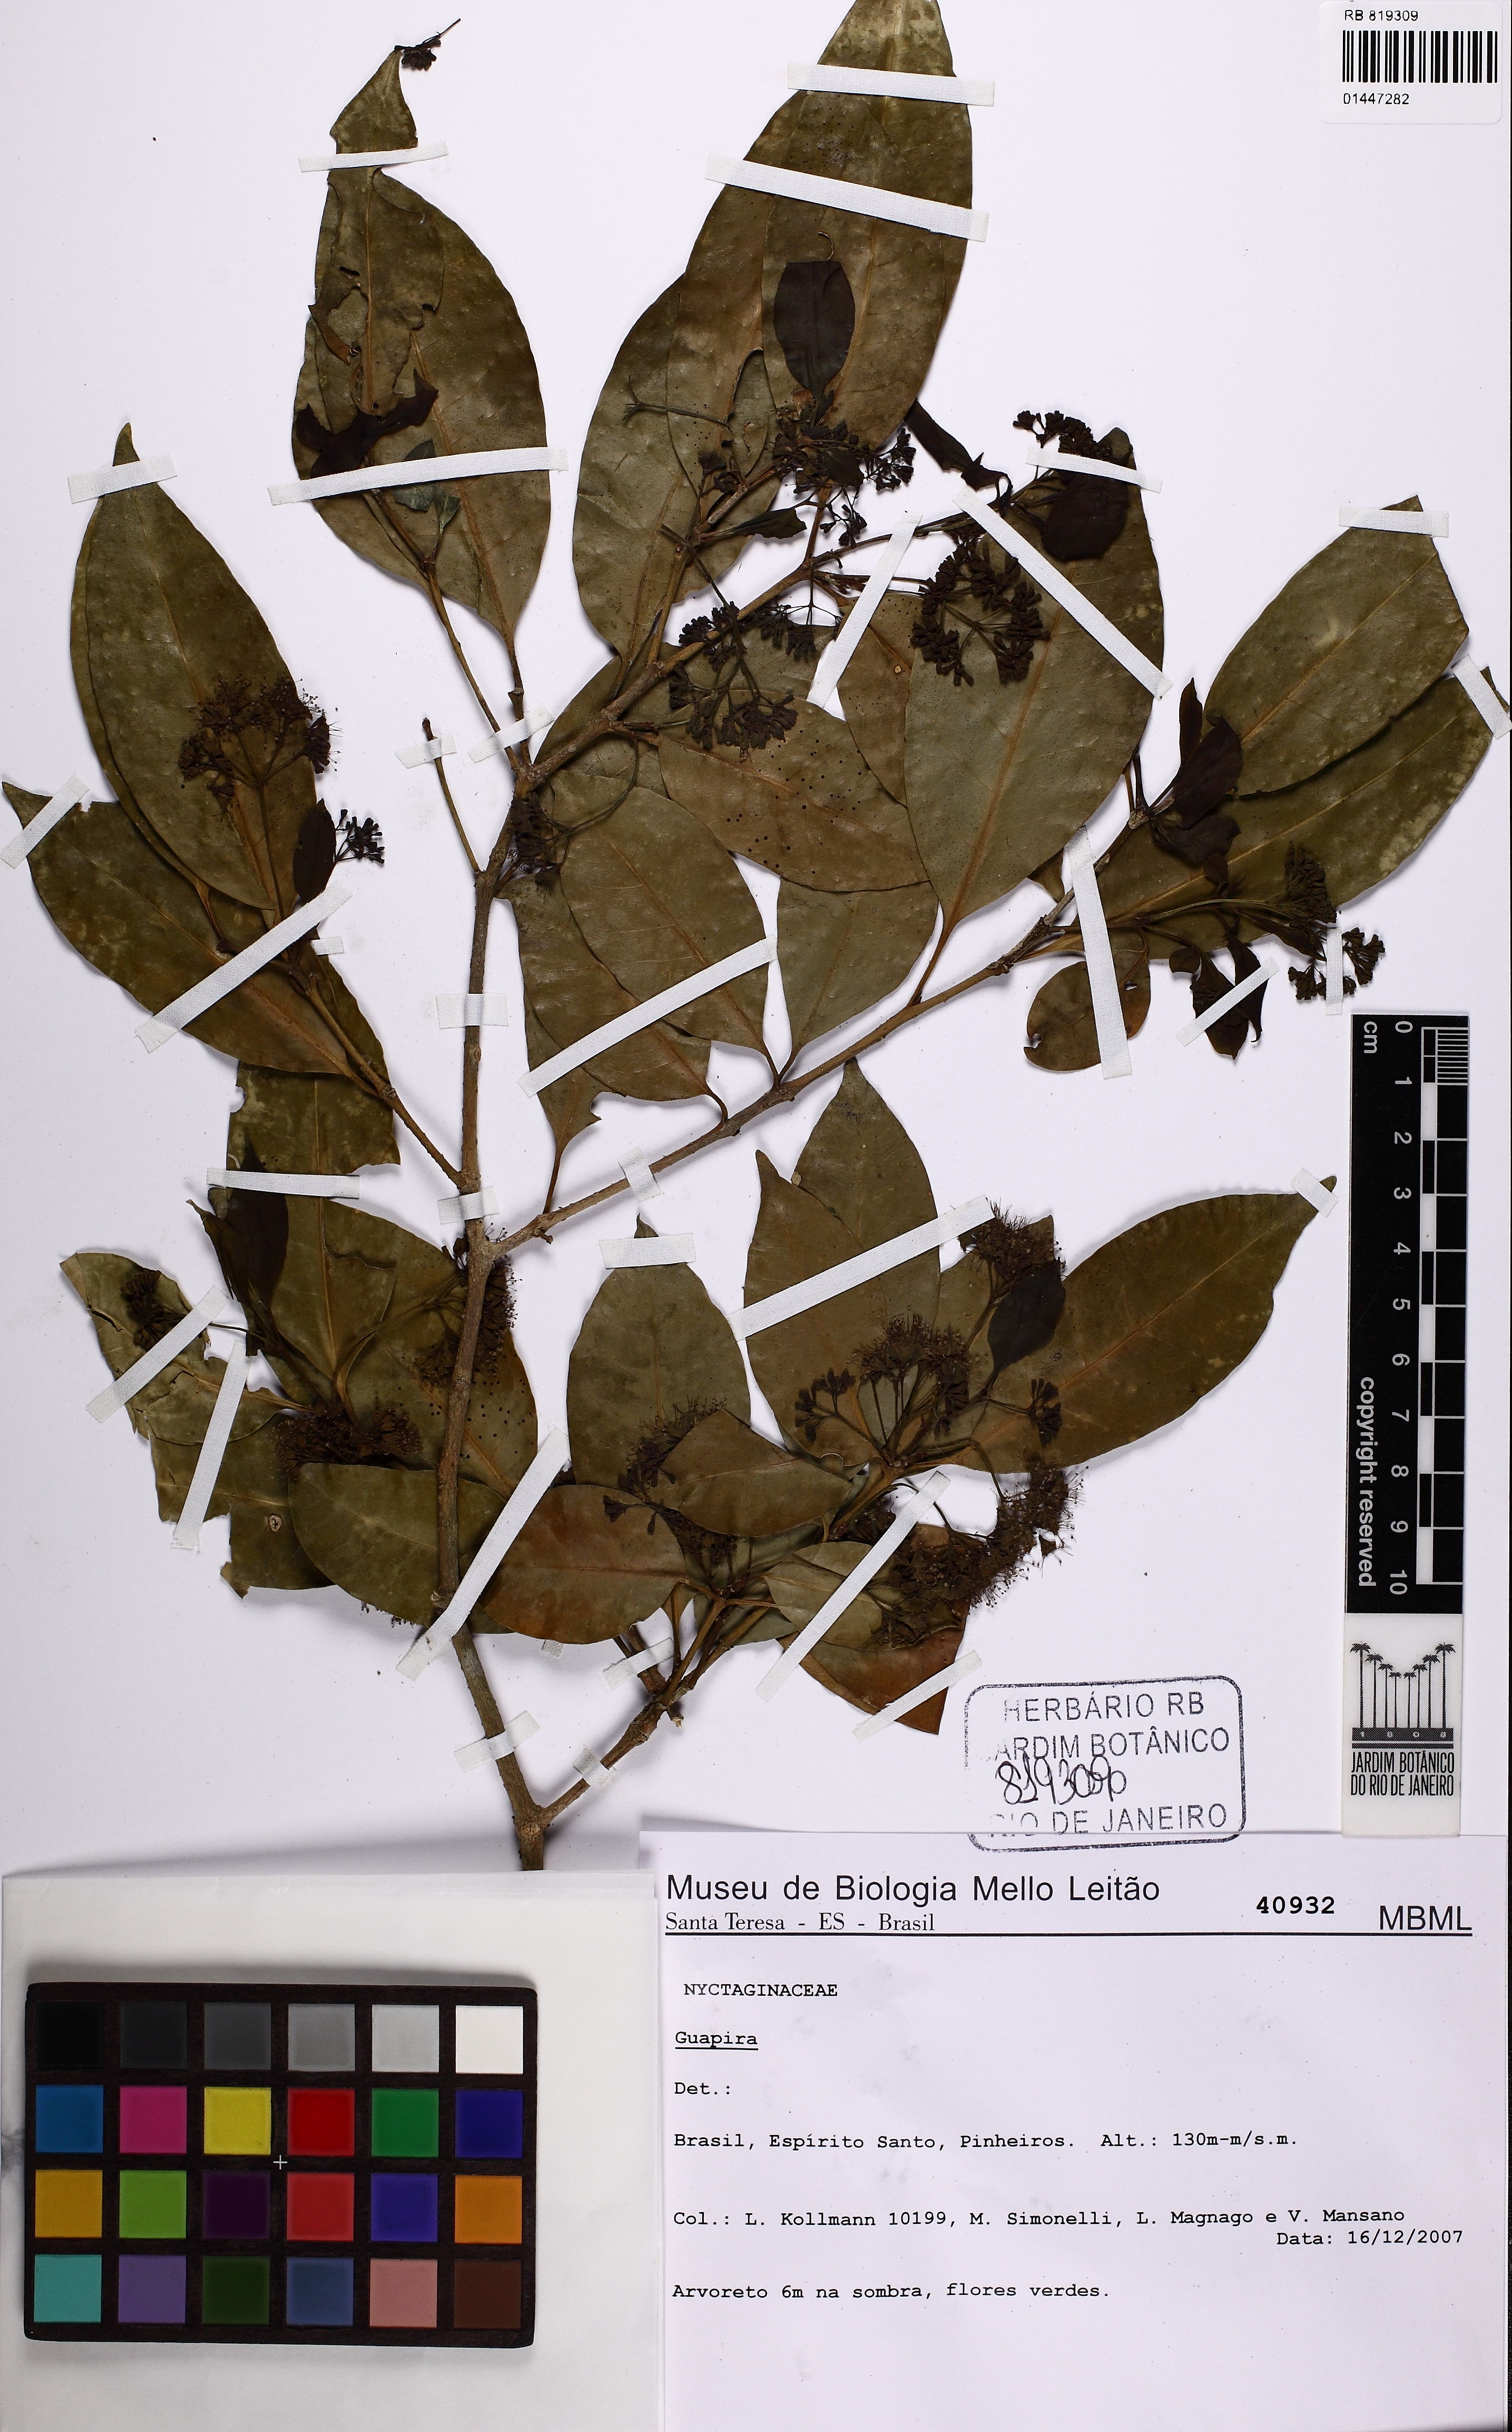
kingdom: Plantae
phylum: Tracheophyta
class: Magnoliopsida
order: Caryophyllales
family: Nyctaginaceae
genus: Guapira
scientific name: Guapira
